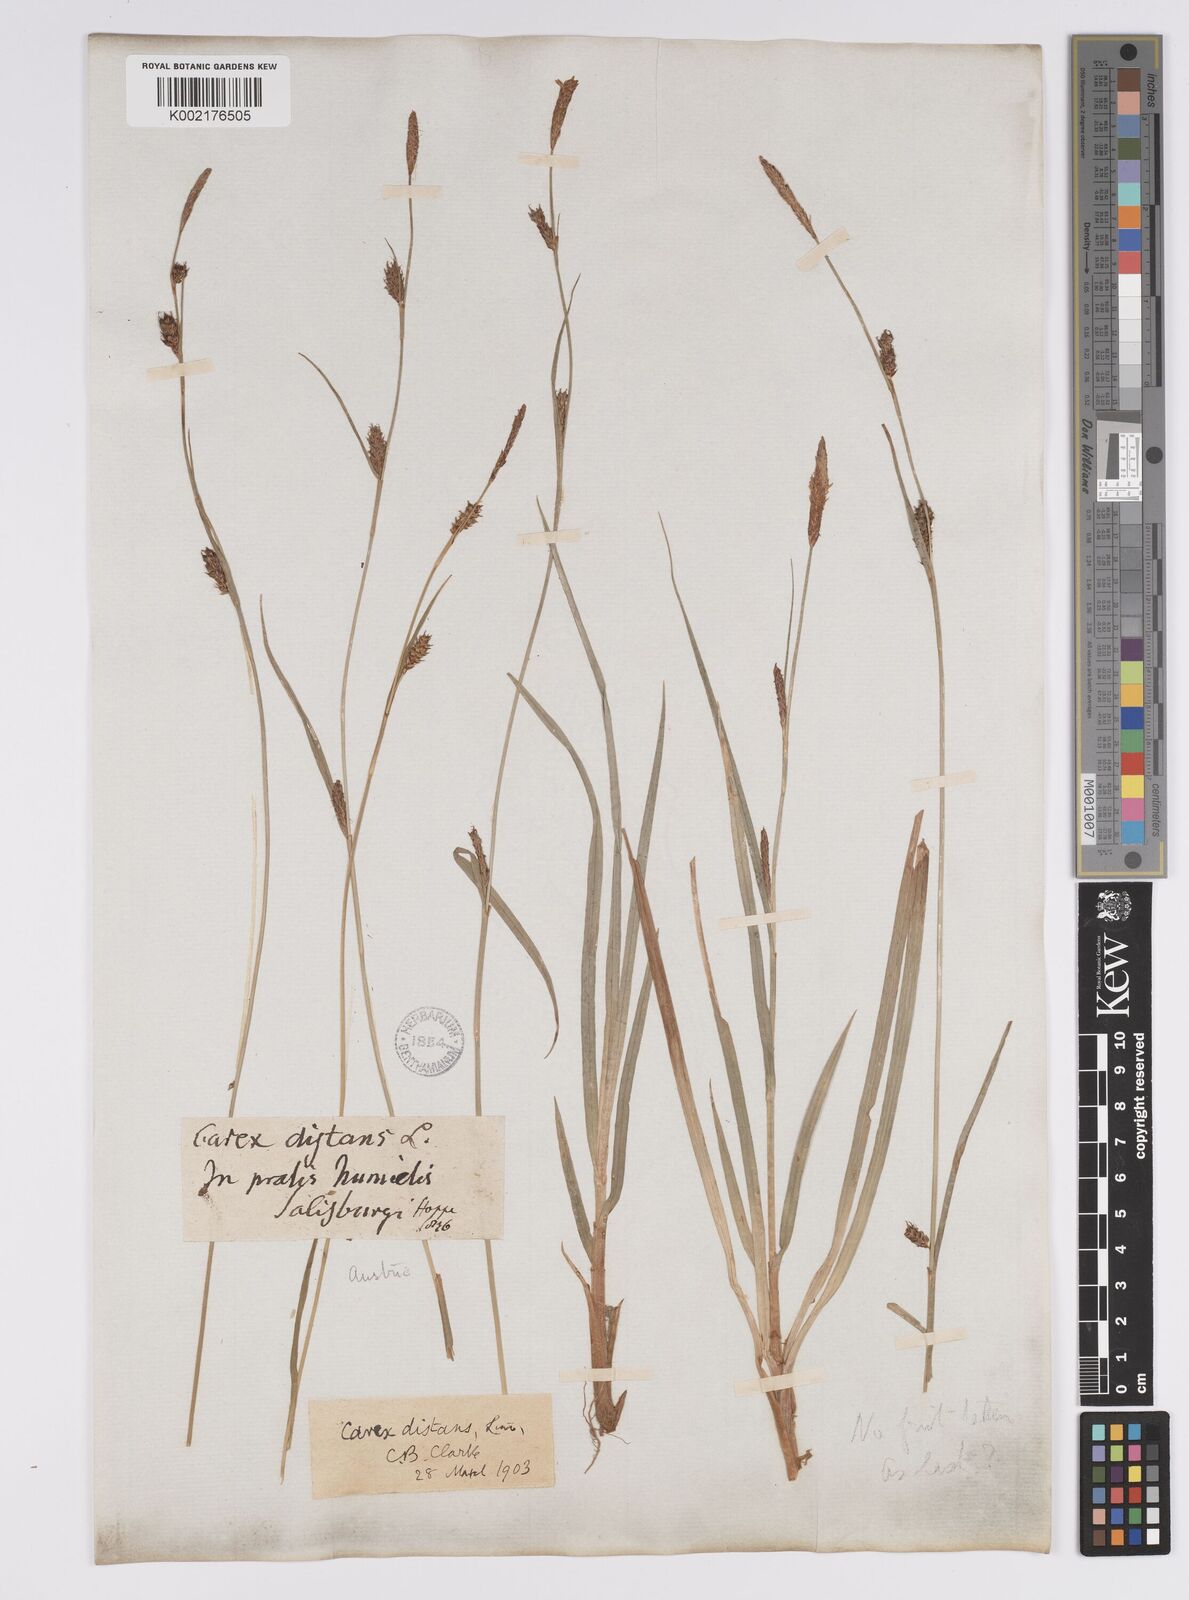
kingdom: Plantae
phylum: Tracheophyta
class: Liliopsida
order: Poales
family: Cyperaceae
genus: Carex
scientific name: Carex distans
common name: Distant sedge
